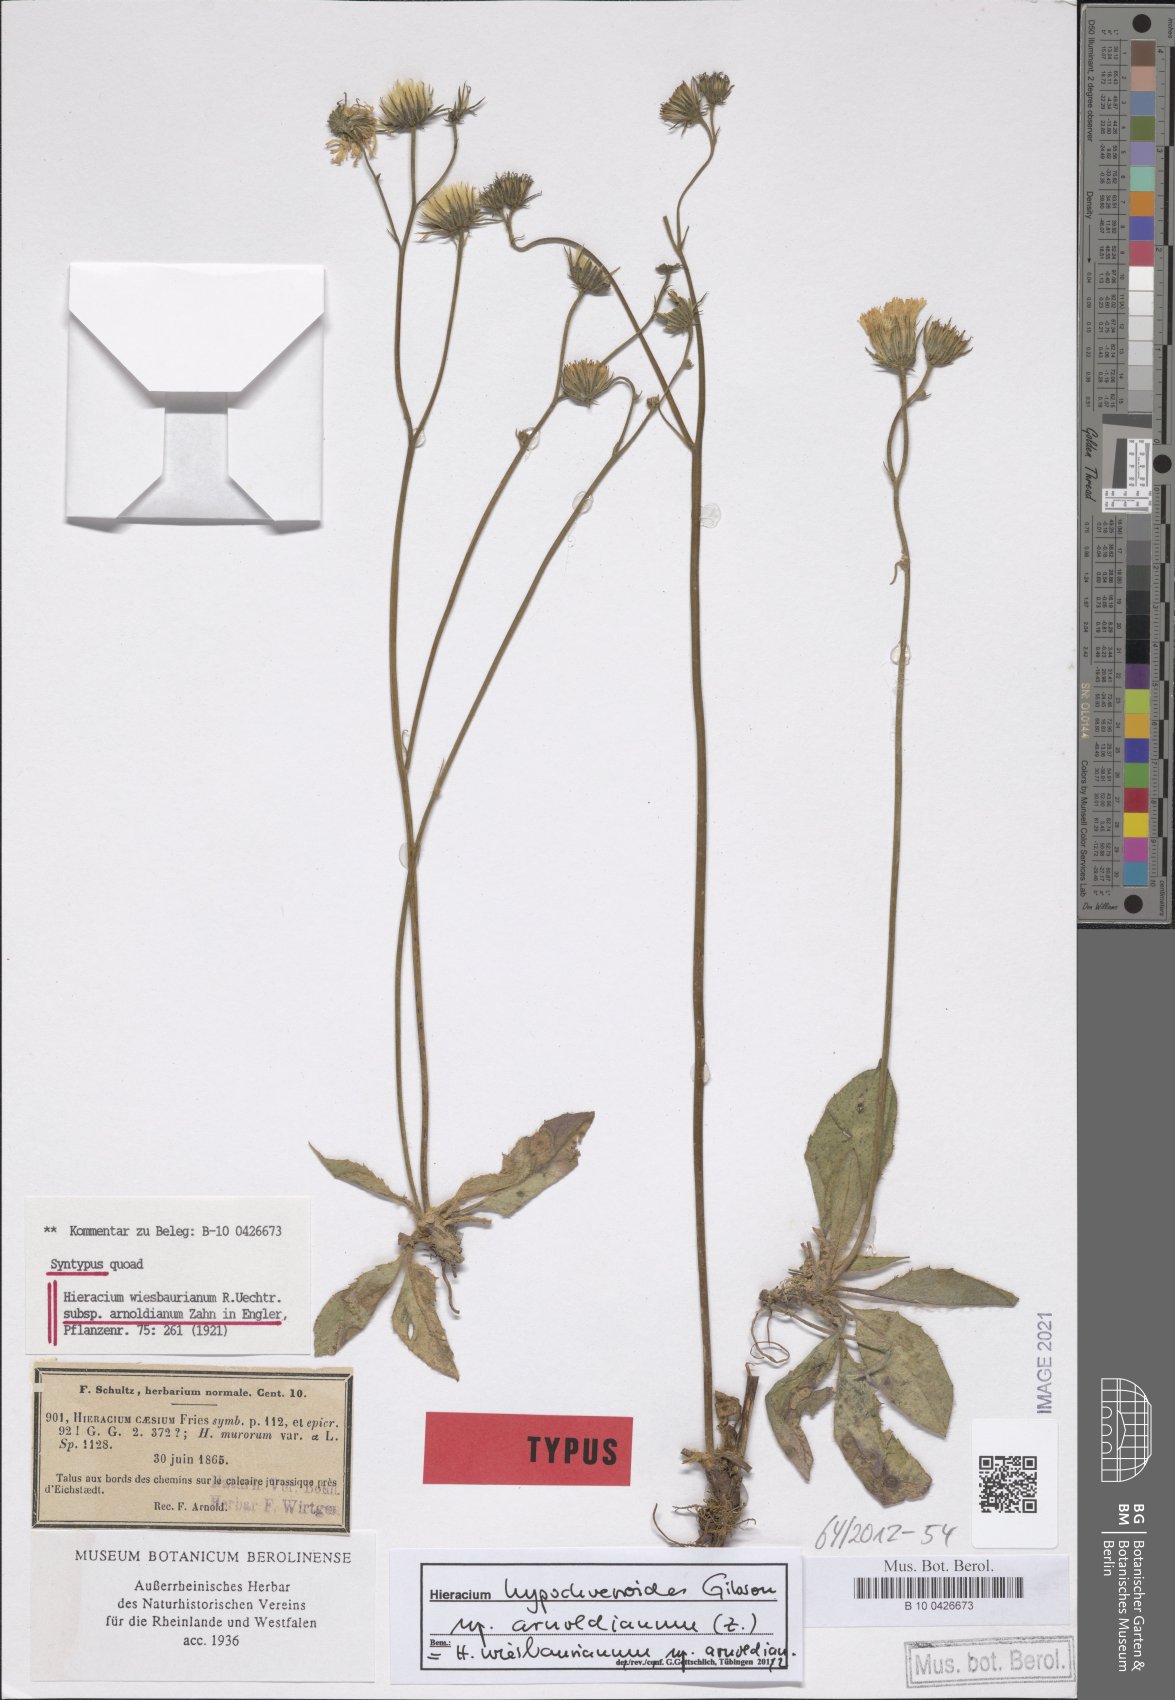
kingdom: Plantae
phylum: Tracheophyta
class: Magnoliopsida
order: Asterales
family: Asteraceae
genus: Hieracium
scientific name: Hieracium hypochoeroides
